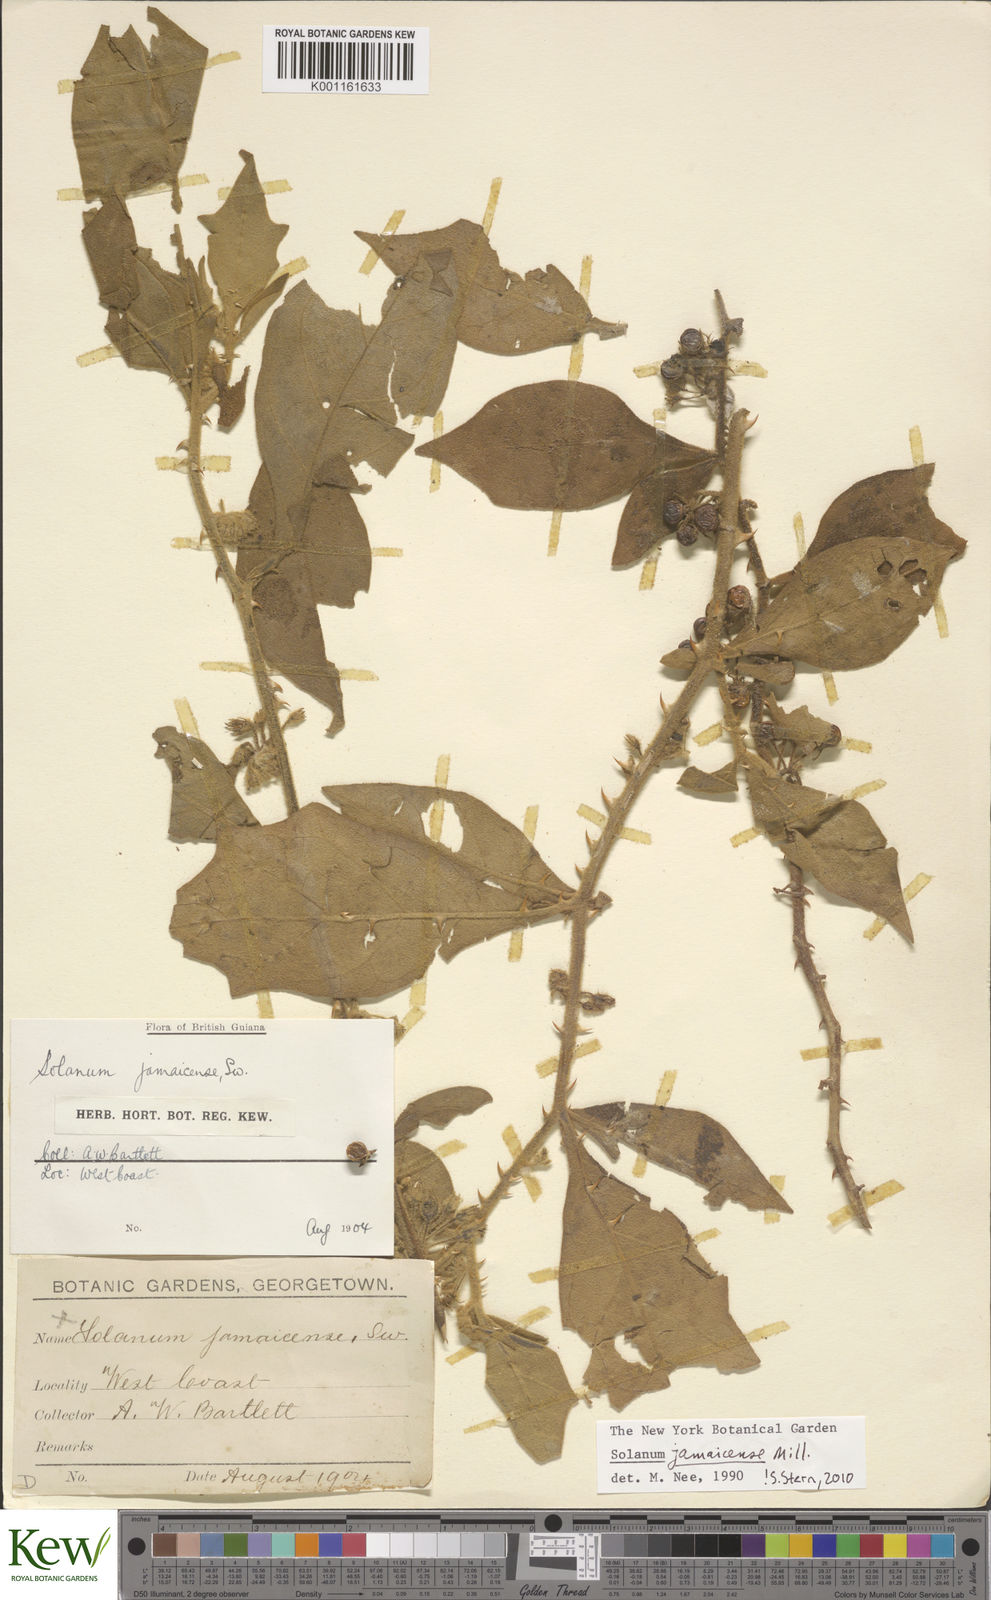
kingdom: Plantae
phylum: Tracheophyta
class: Magnoliopsida
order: Solanales
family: Solanaceae
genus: Solanum
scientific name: Solanum jamaicense
